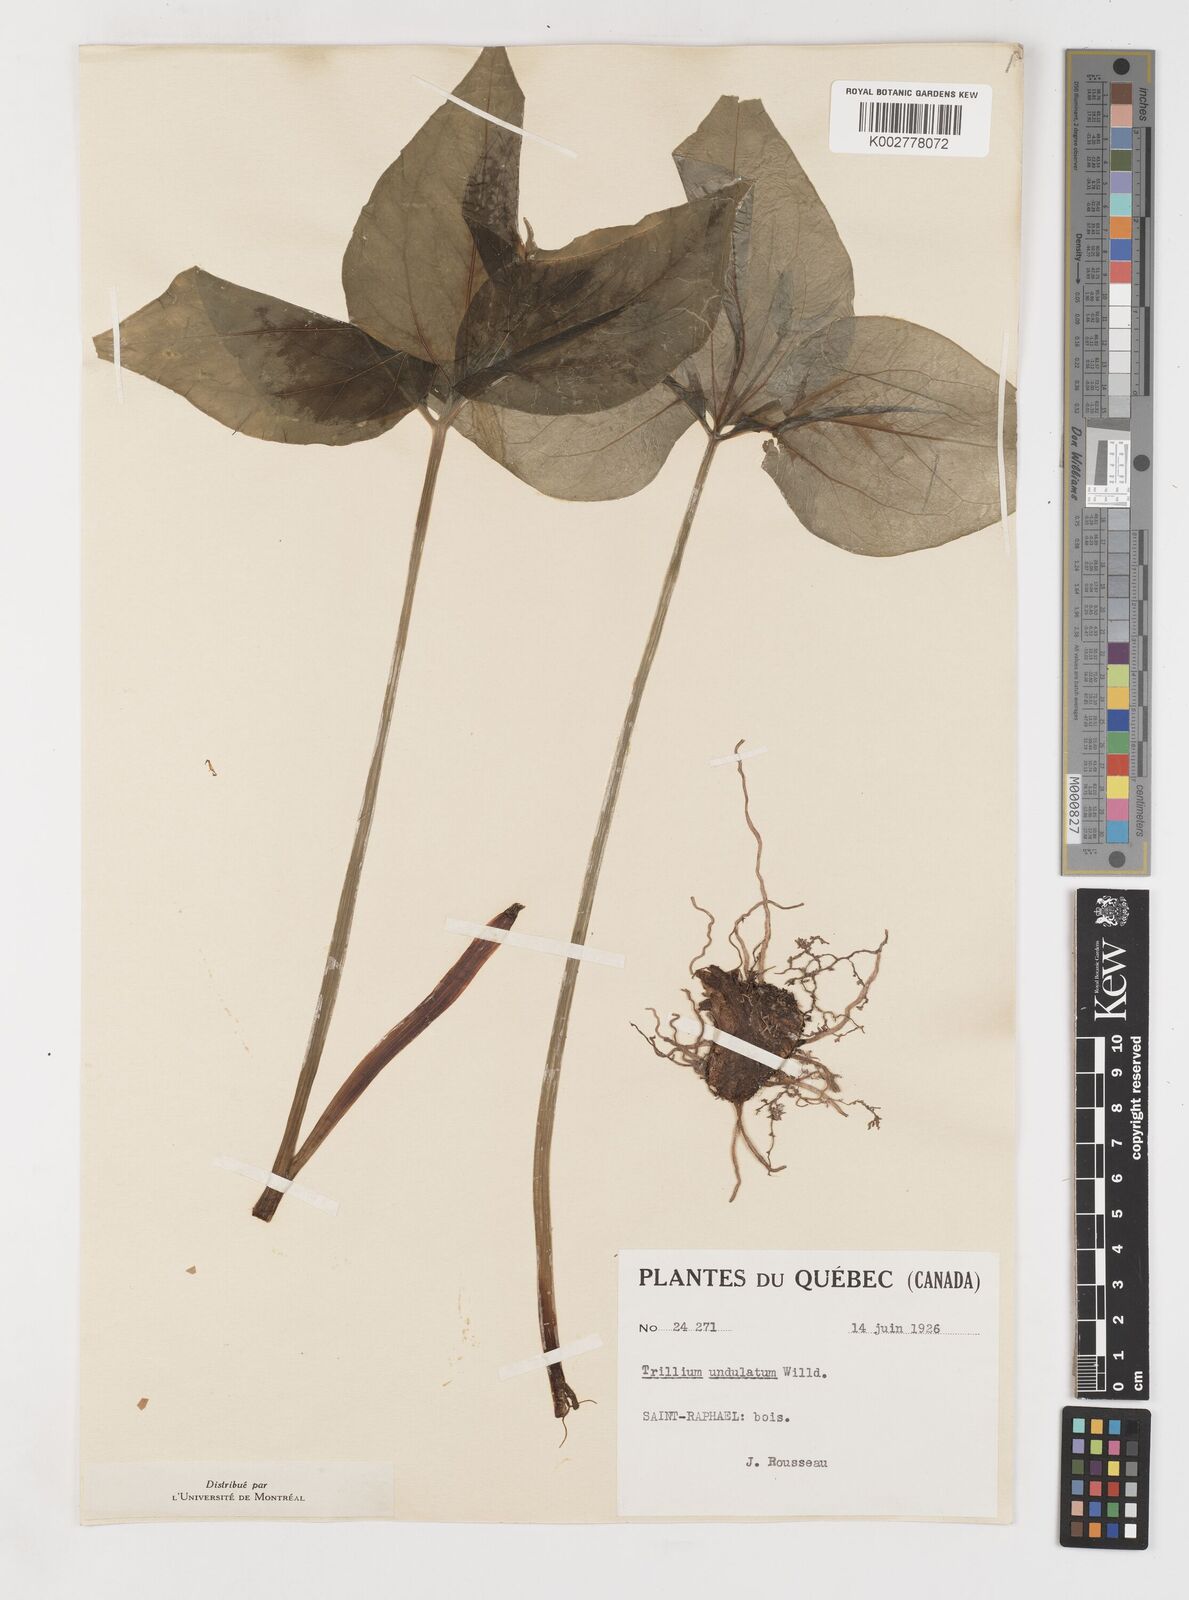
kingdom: Plantae
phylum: Tracheophyta
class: Liliopsida
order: Liliales
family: Melanthiaceae
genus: Trillium
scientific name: Trillium undulatum
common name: Paint trillium
